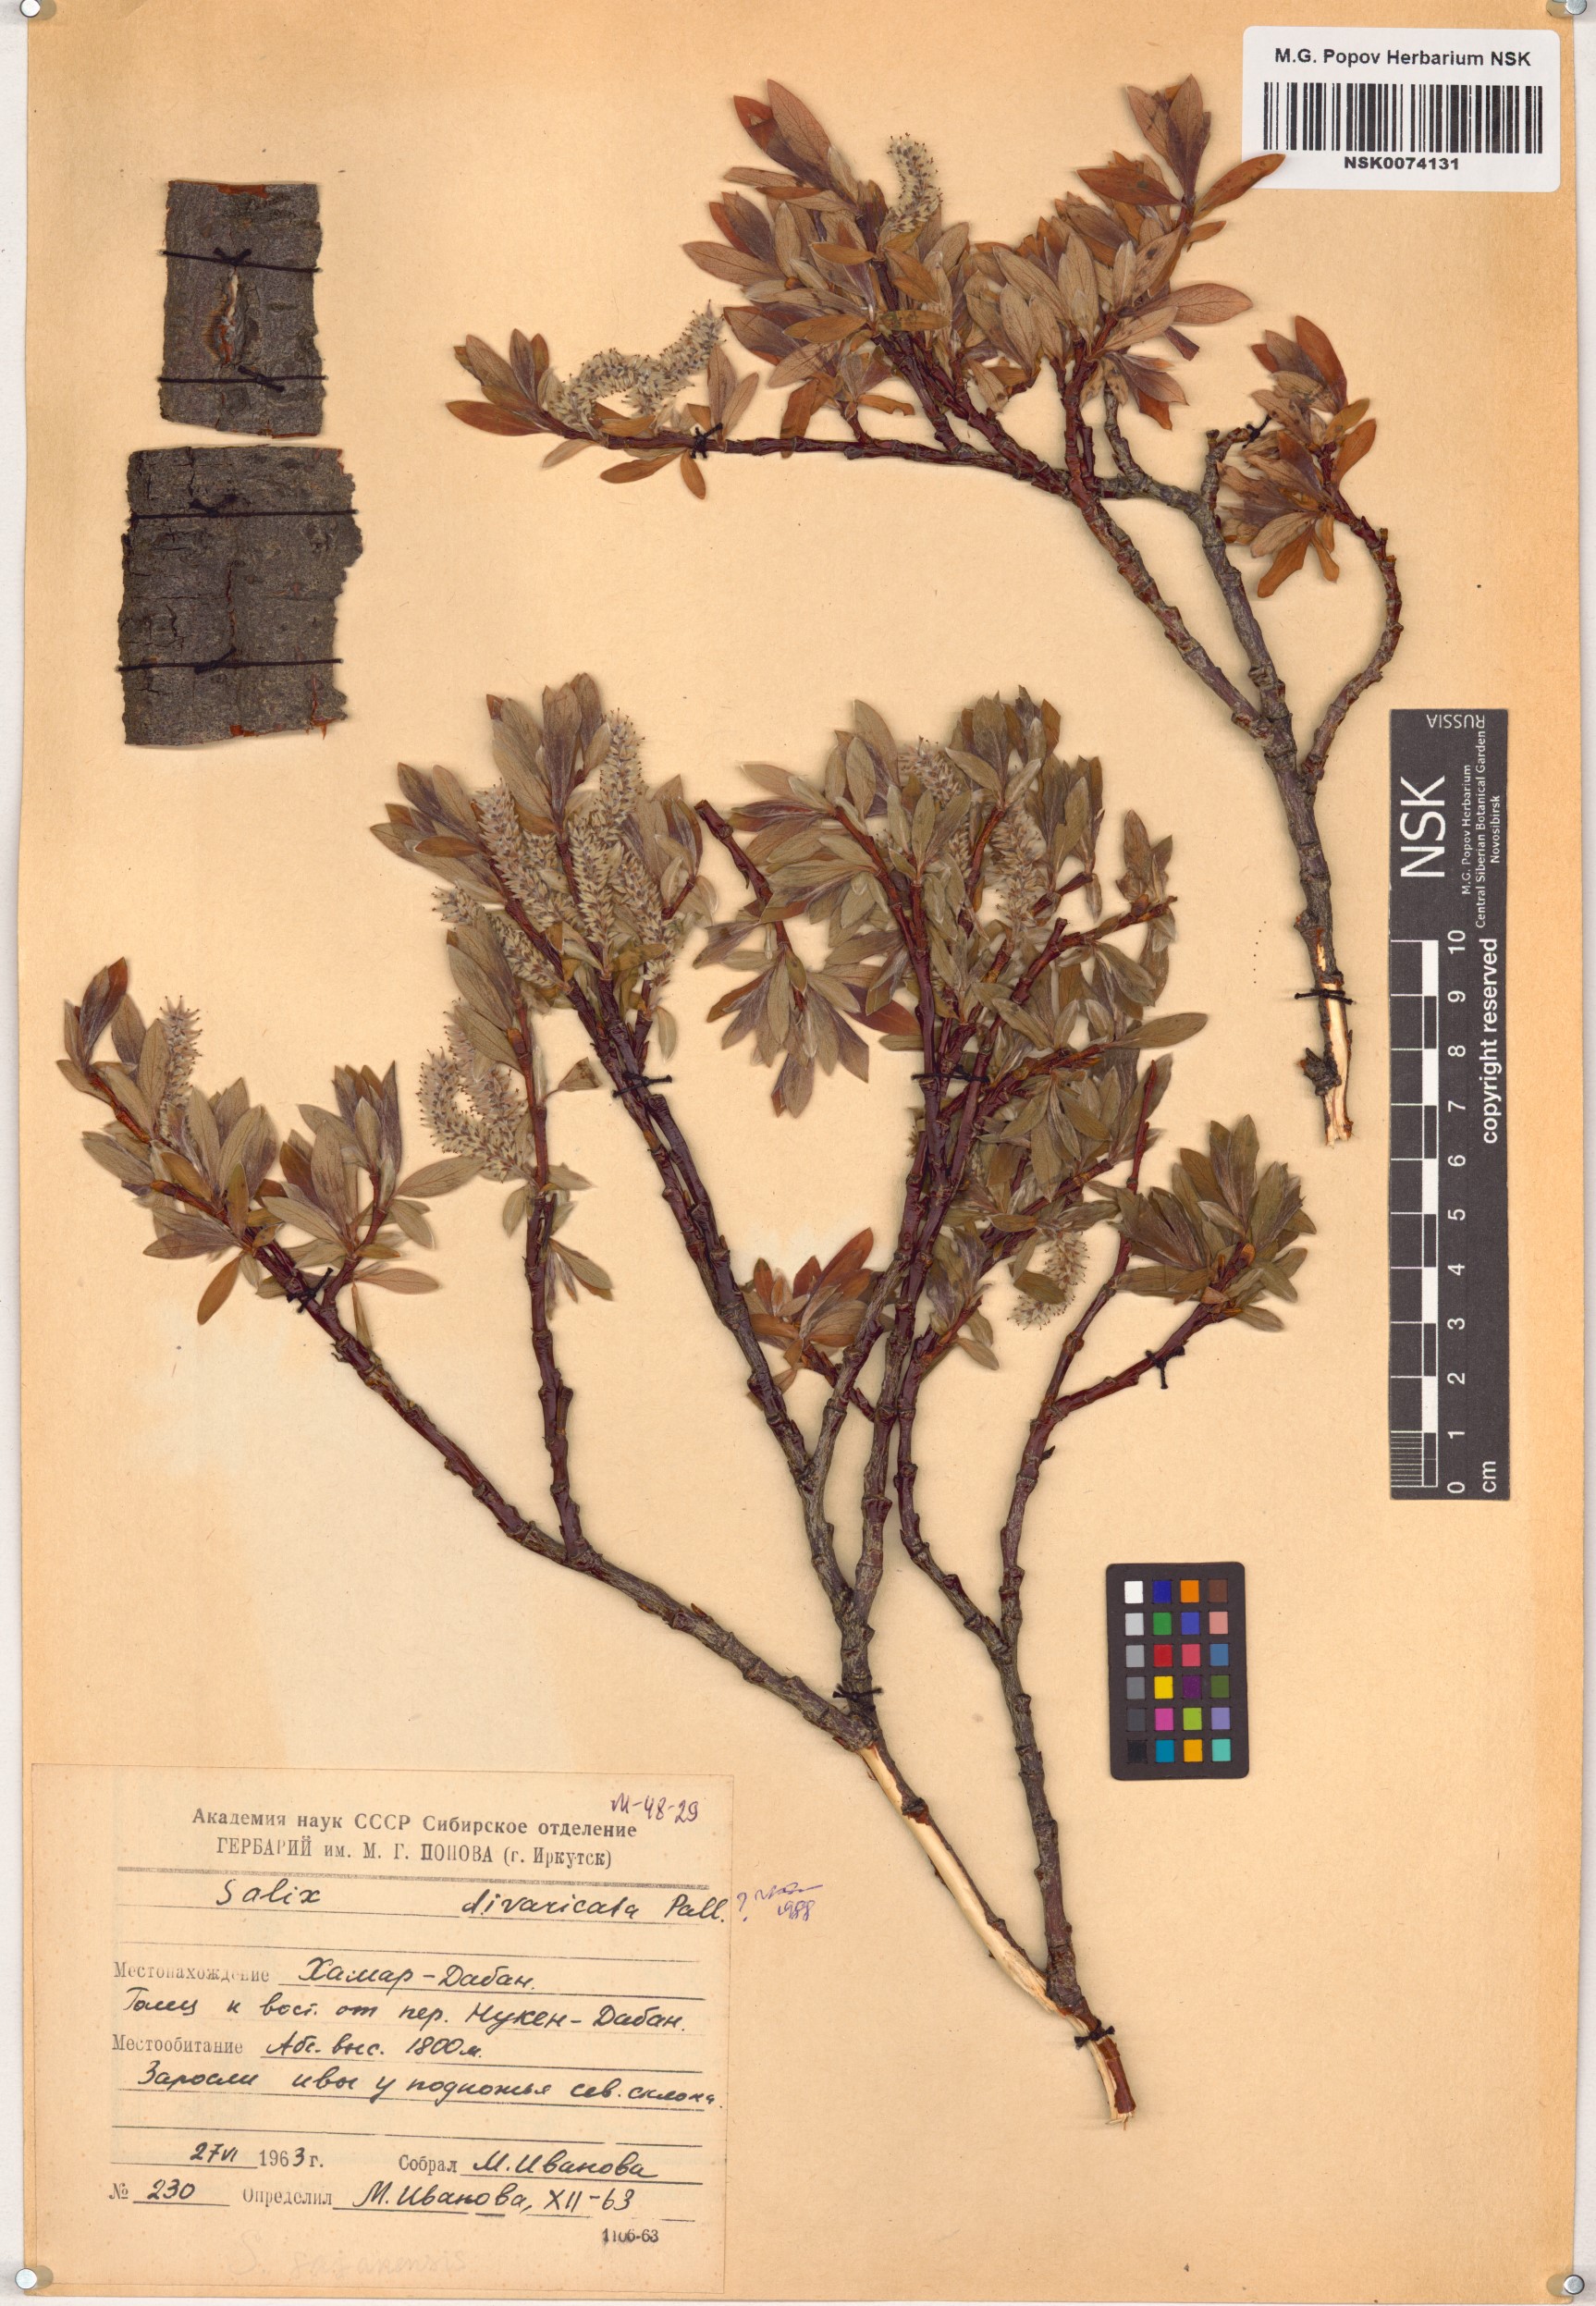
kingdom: Plantae
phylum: Tracheophyta
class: Magnoliopsida
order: Malpighiales
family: Salicaceae
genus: Salix
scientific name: Salix divaricata
